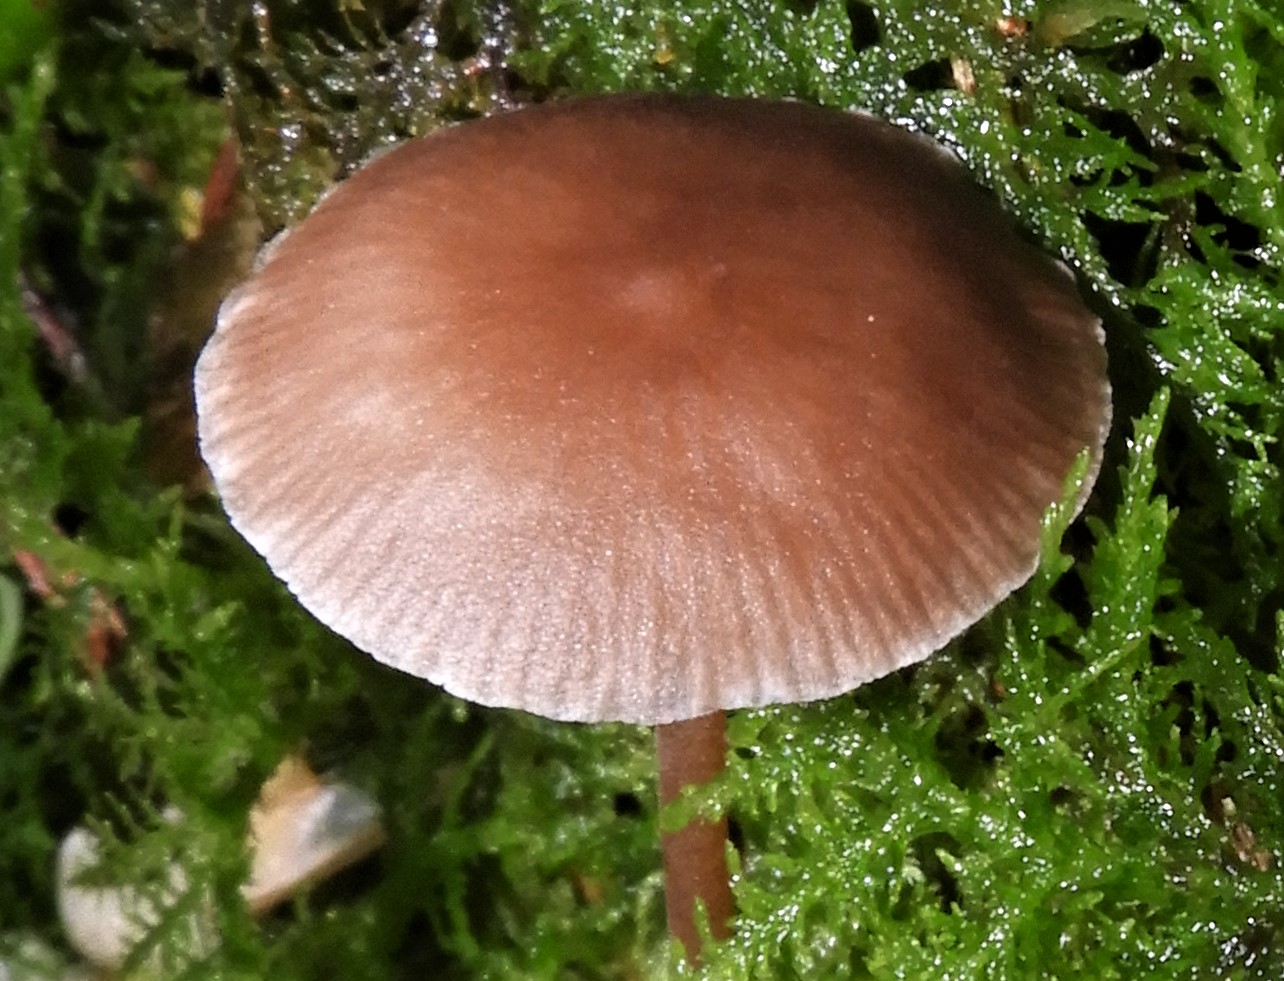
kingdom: Fungi
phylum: Basidiomycota
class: Agaricomycetes
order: Agaricales
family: Physalacriaceae
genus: Strobilurus
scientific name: Strobilurus esculentus
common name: gran-koglehat
